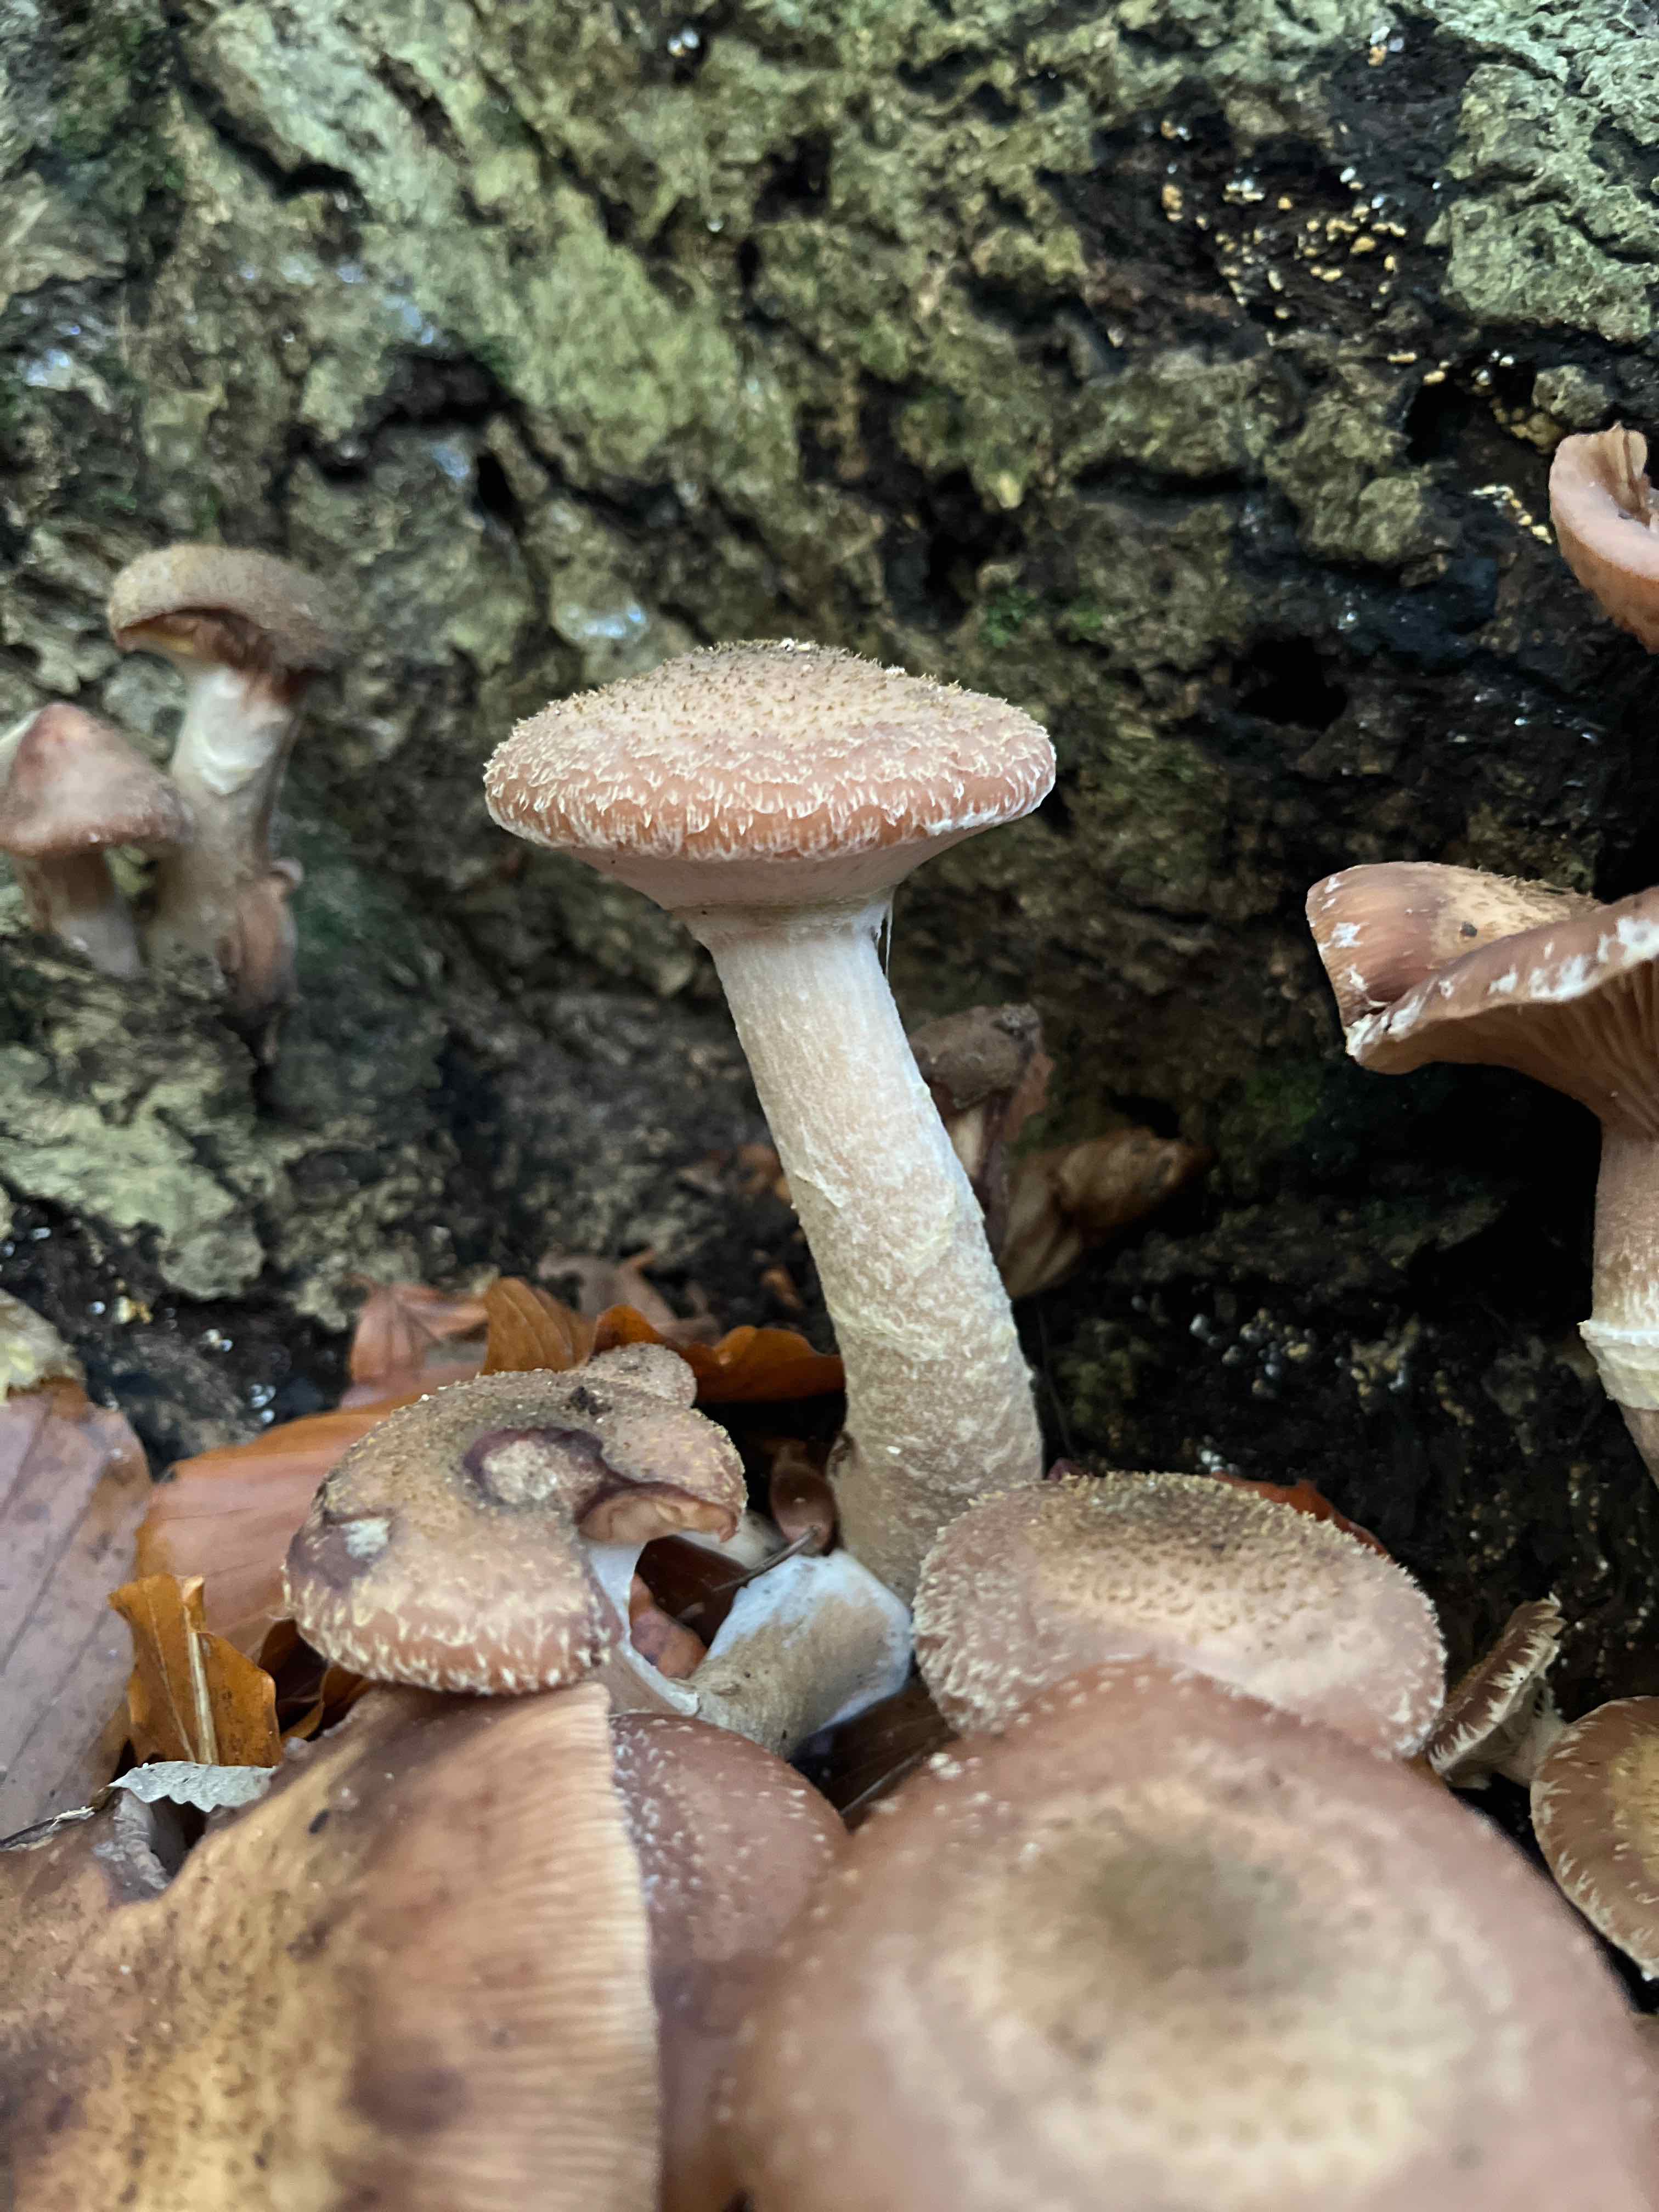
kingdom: Fungi
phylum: Basidiomycota
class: Agaricomycetes
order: Agaricales
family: Physalacriaceae
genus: Armillaria
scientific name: Armillaria ostoyae
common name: mørk honningsvamp
